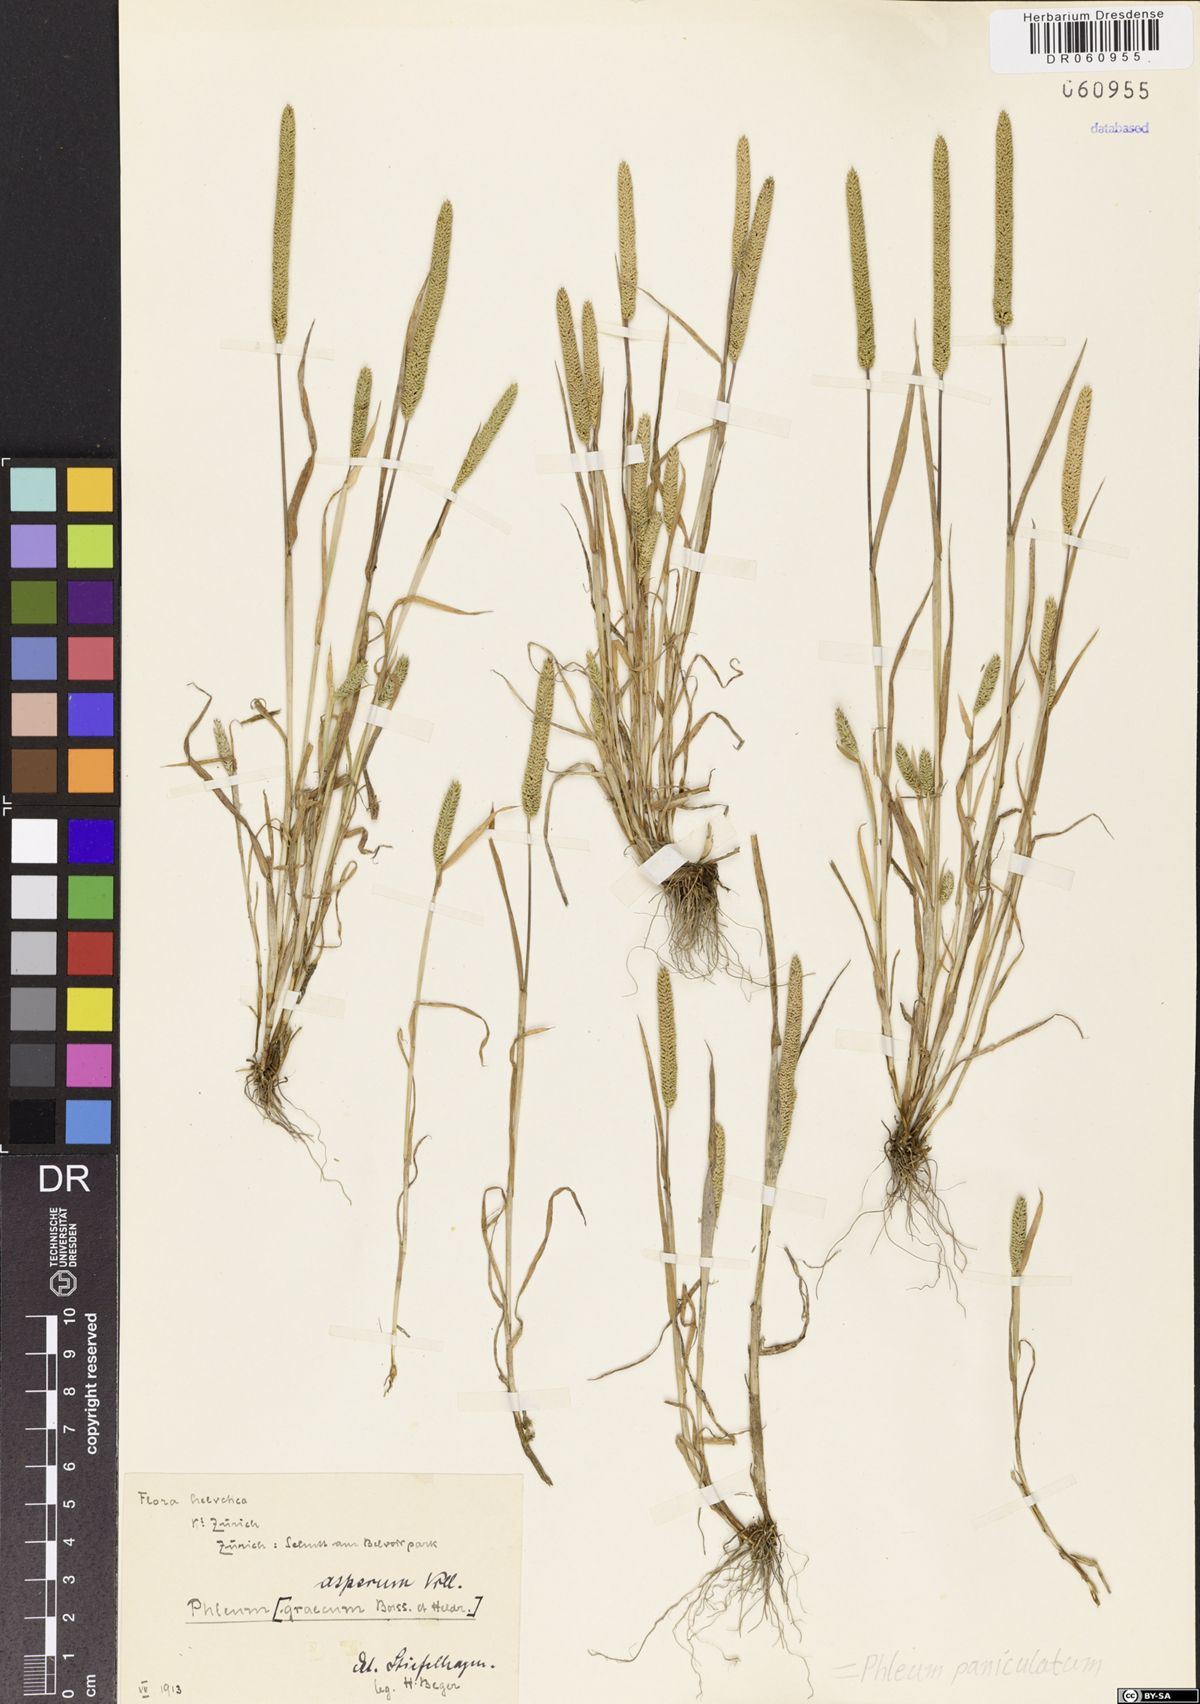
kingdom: Plantae
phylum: Tracheophyta
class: Liliopsida
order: Poales
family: Poaceae
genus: Phleum
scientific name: Phleum paniculatum
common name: British timothy
